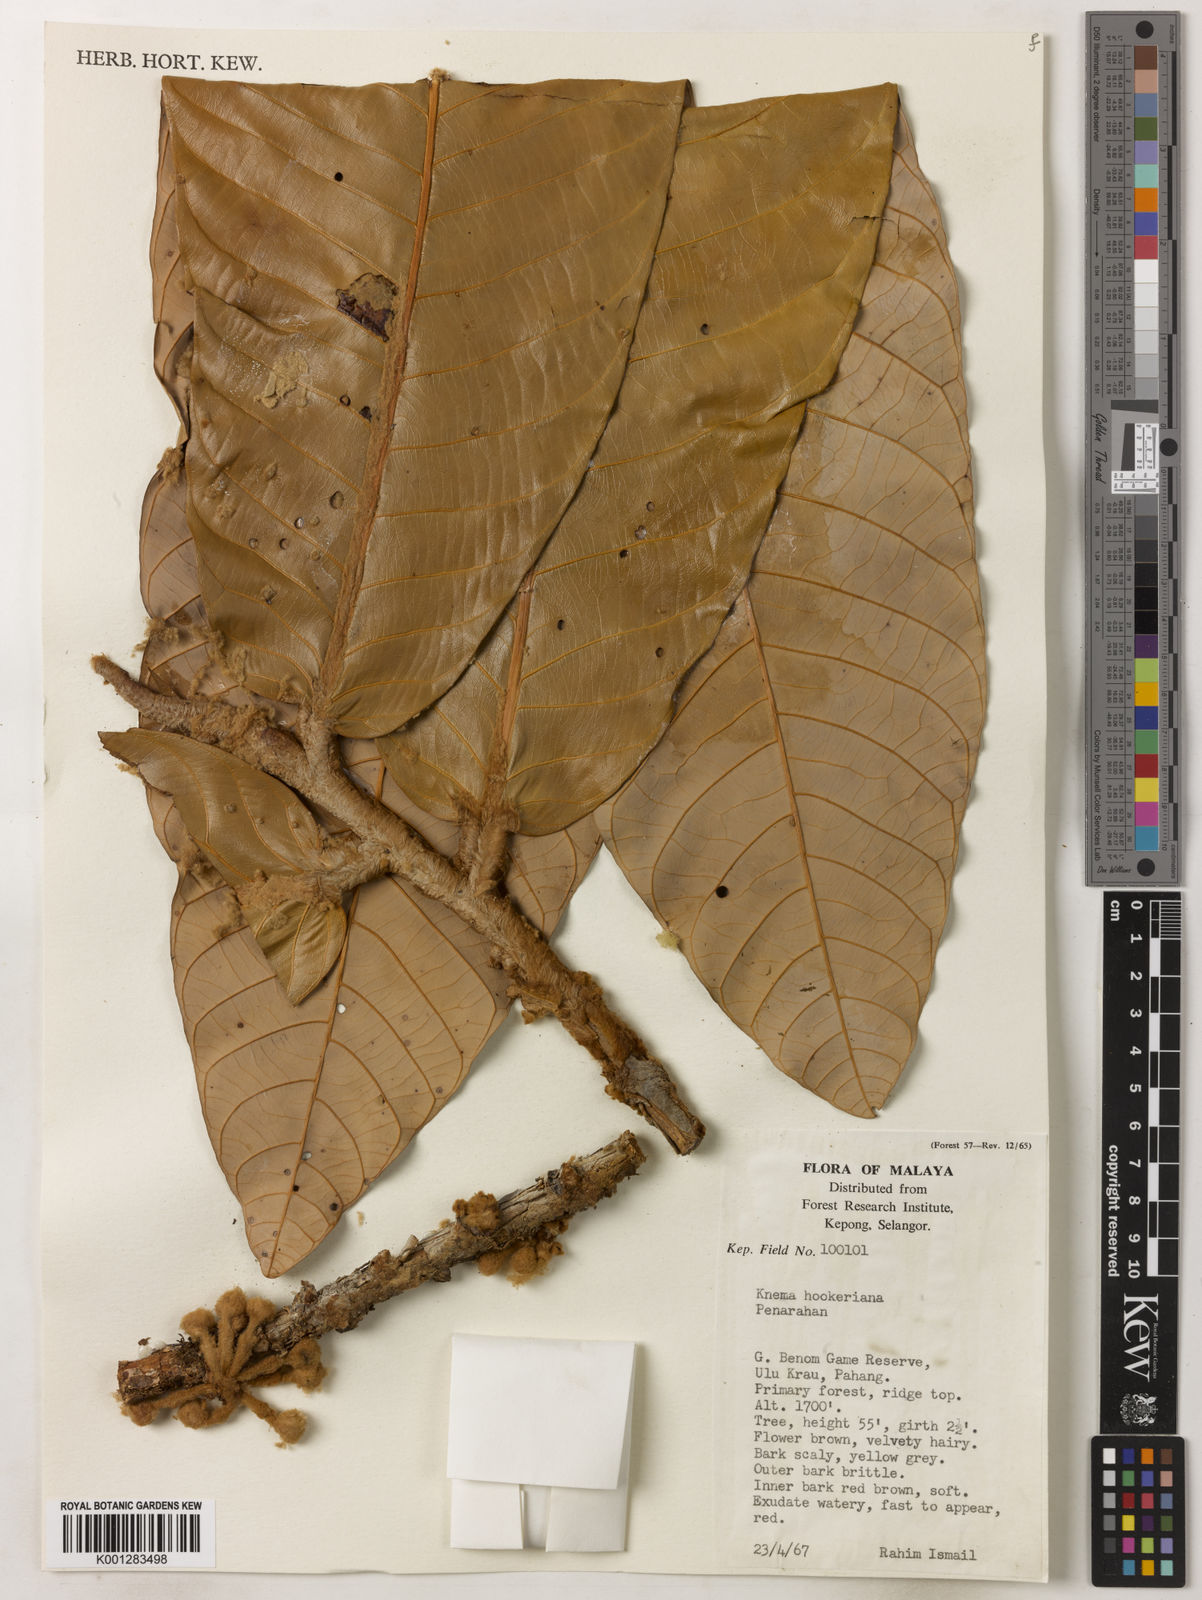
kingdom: Plantae
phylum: Tracheophyta
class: Magnoliopsida
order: Magnoliales
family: Myristicaceae
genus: Knema
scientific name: Knema hookeriana
